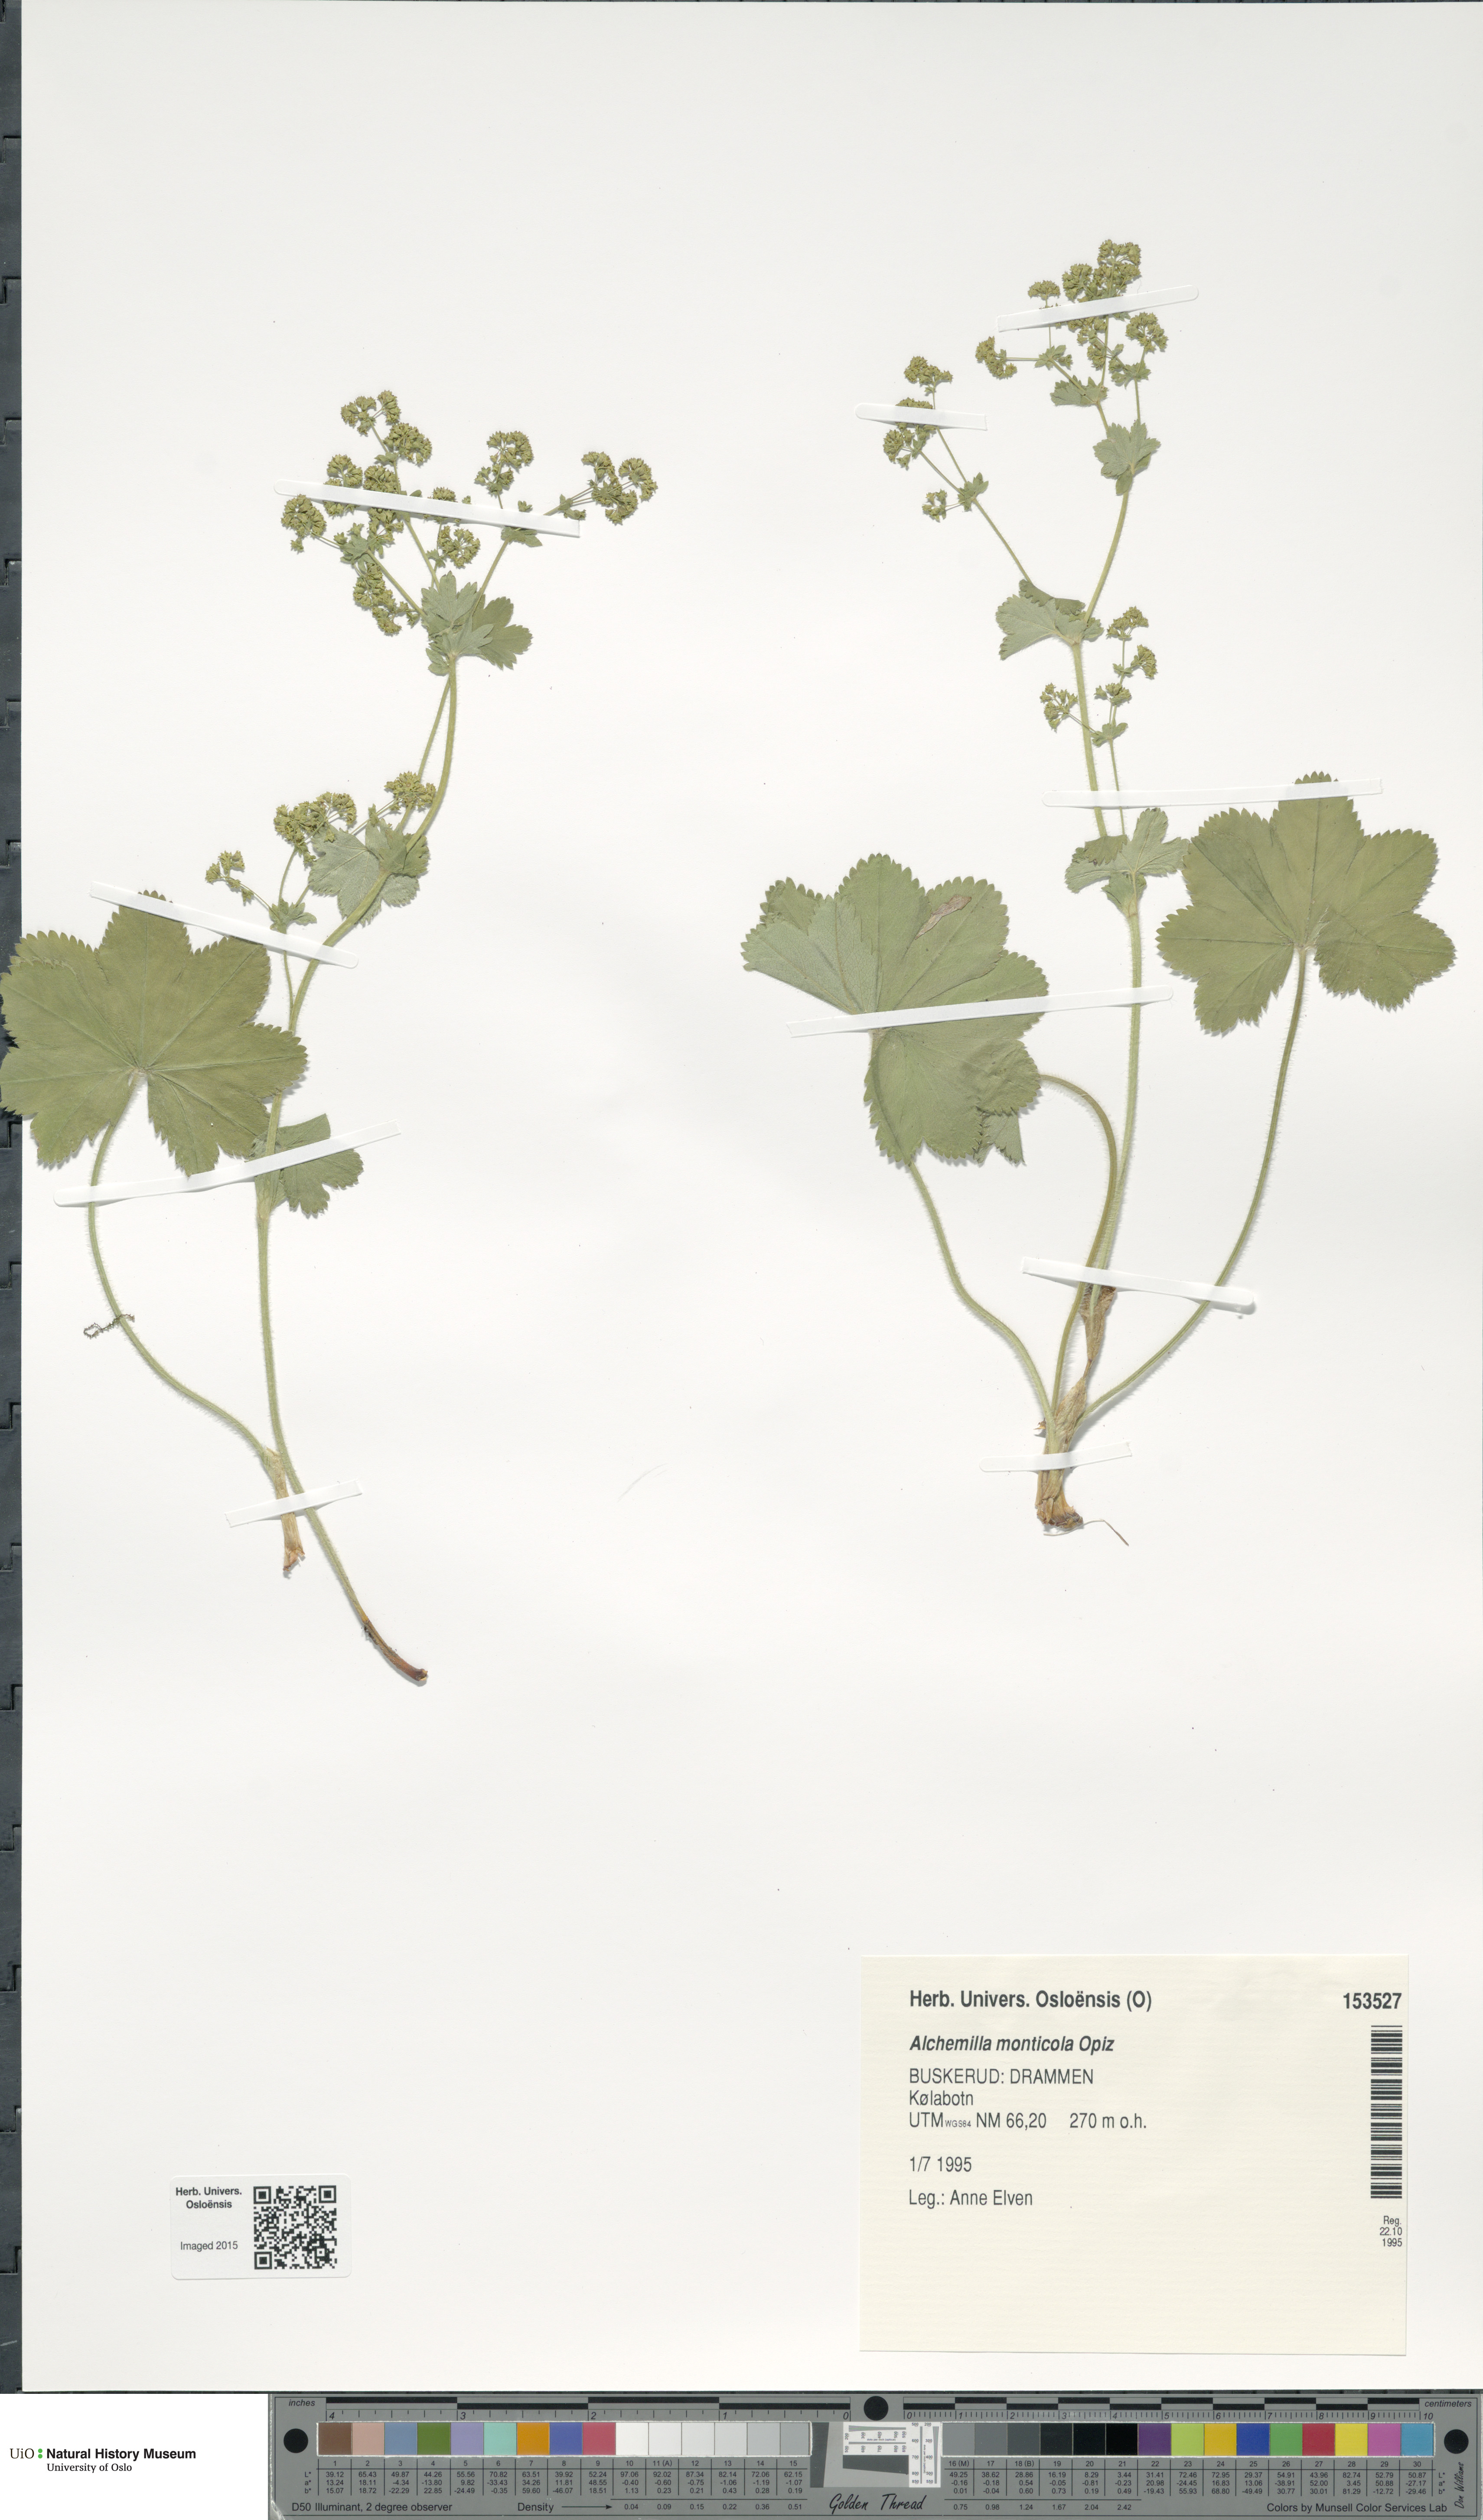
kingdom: Plantae
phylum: Tracheophyta
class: Magnoliopsida
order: Rosales
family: Rosaceae
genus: Alchemilla
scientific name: Alchemilla monticola
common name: Hairy lady's mantle
